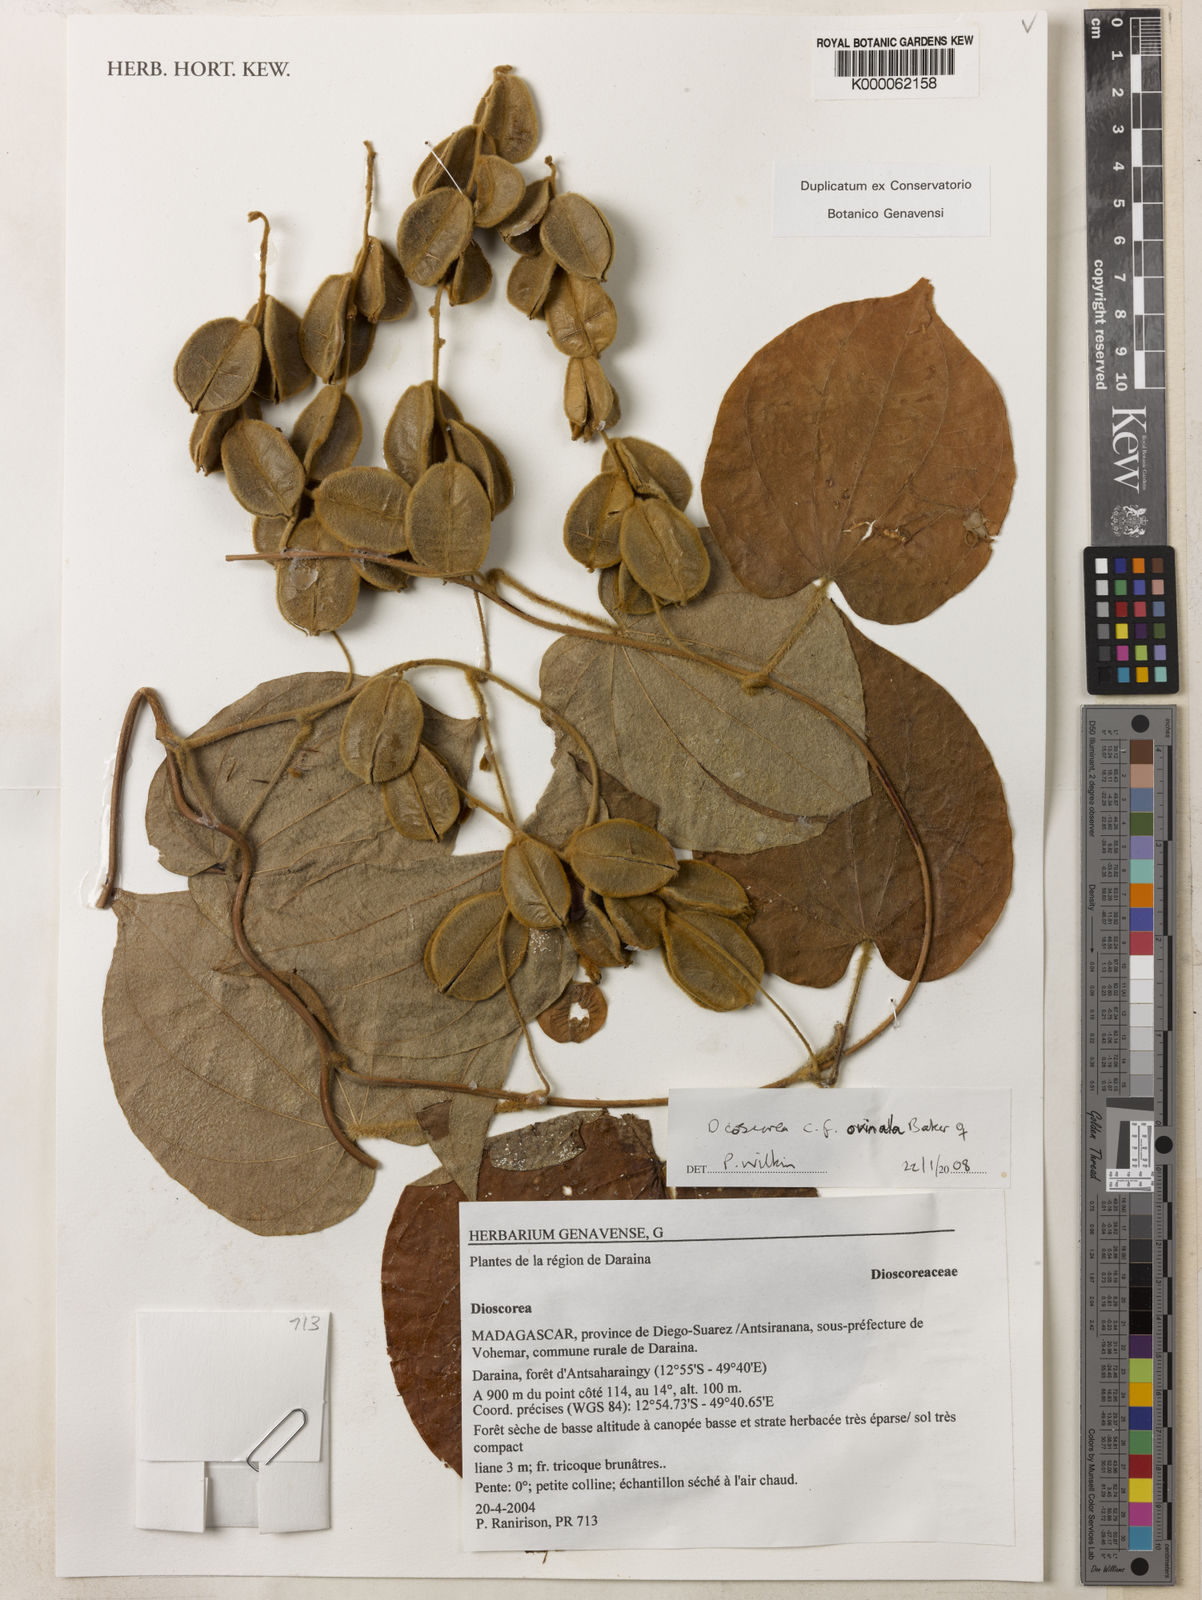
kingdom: Plantae
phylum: Tracheophyta
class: Liliopsida
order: Dioscoreales
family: Dioscoreaceae
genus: Dioscorea
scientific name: Dioscorea ovinala
